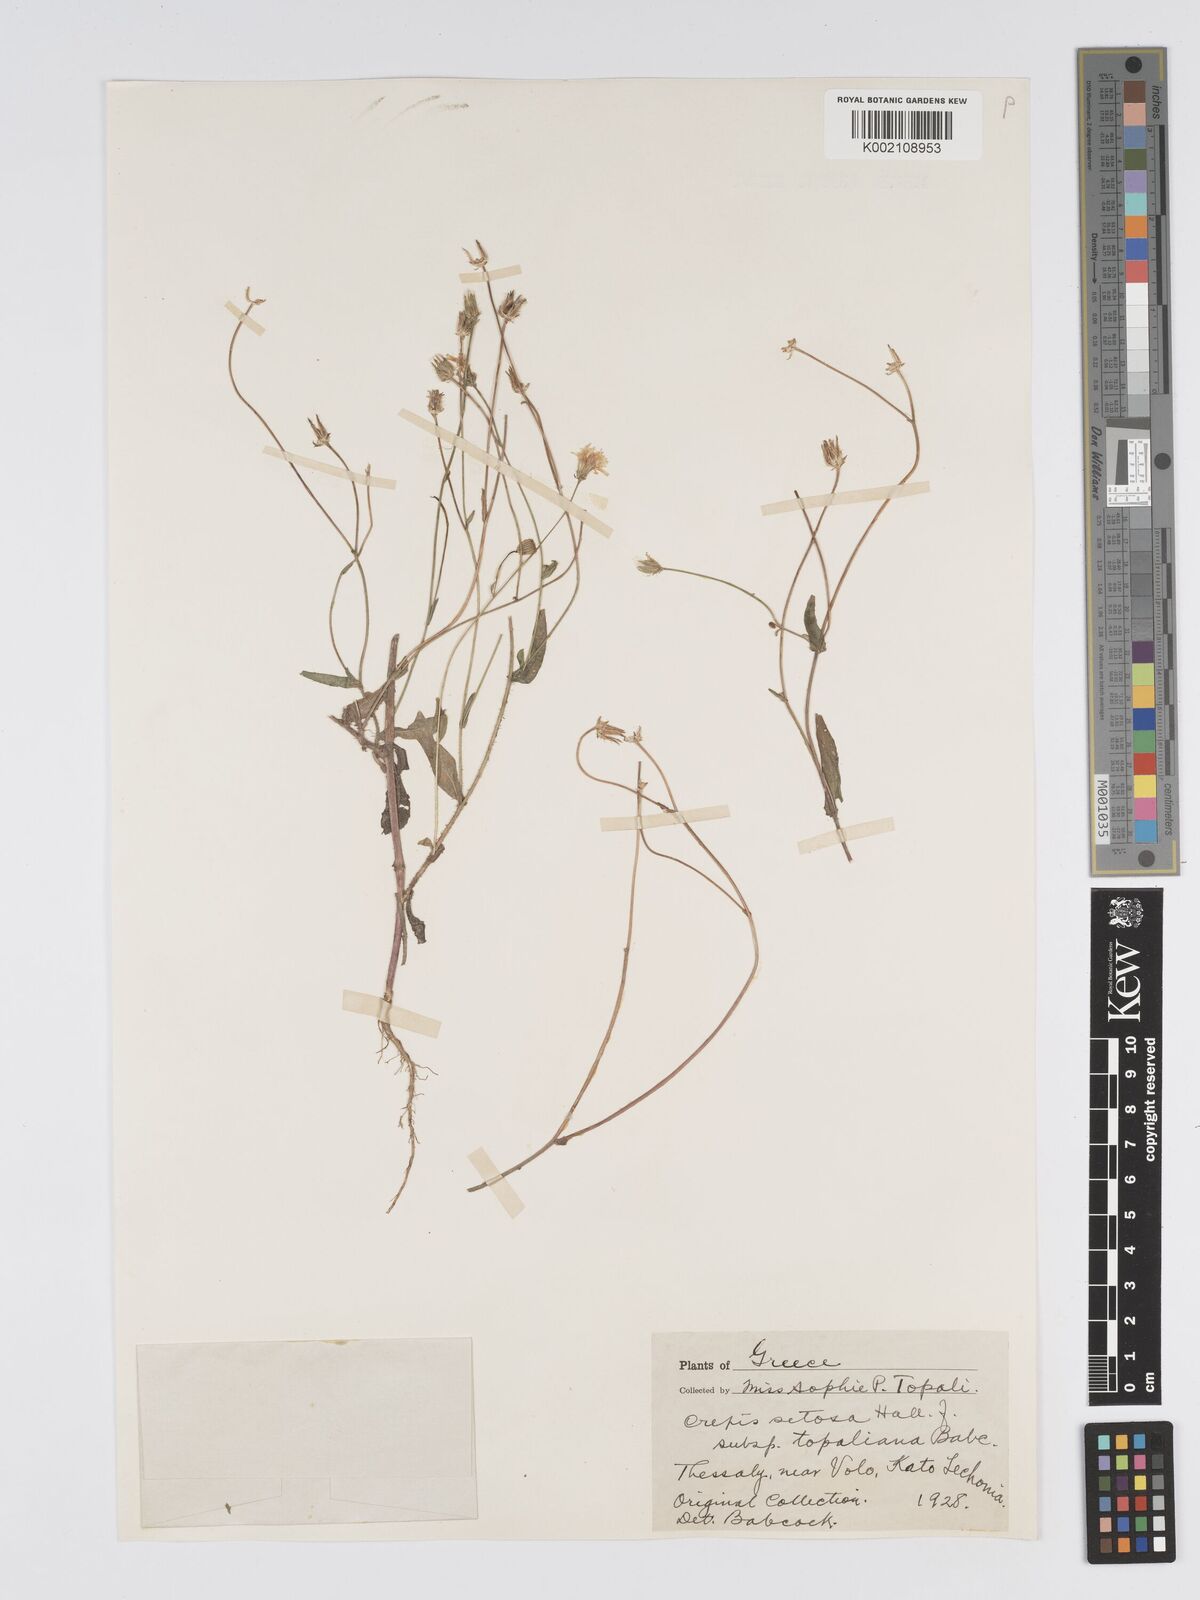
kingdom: Plantae
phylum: Tracheophyta
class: Magnoliopsida
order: Asterales
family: Asteraceae
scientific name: Asteraceae
